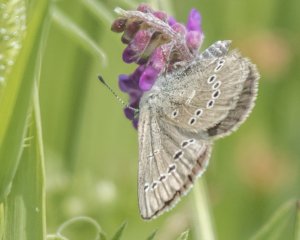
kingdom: Animalia
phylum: Arthropoda
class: Insecta
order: Lepidoptera
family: Lycaenidae
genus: Glaucopsyche
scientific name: Glaucopsyche lygdamus
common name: Silvery Blue
